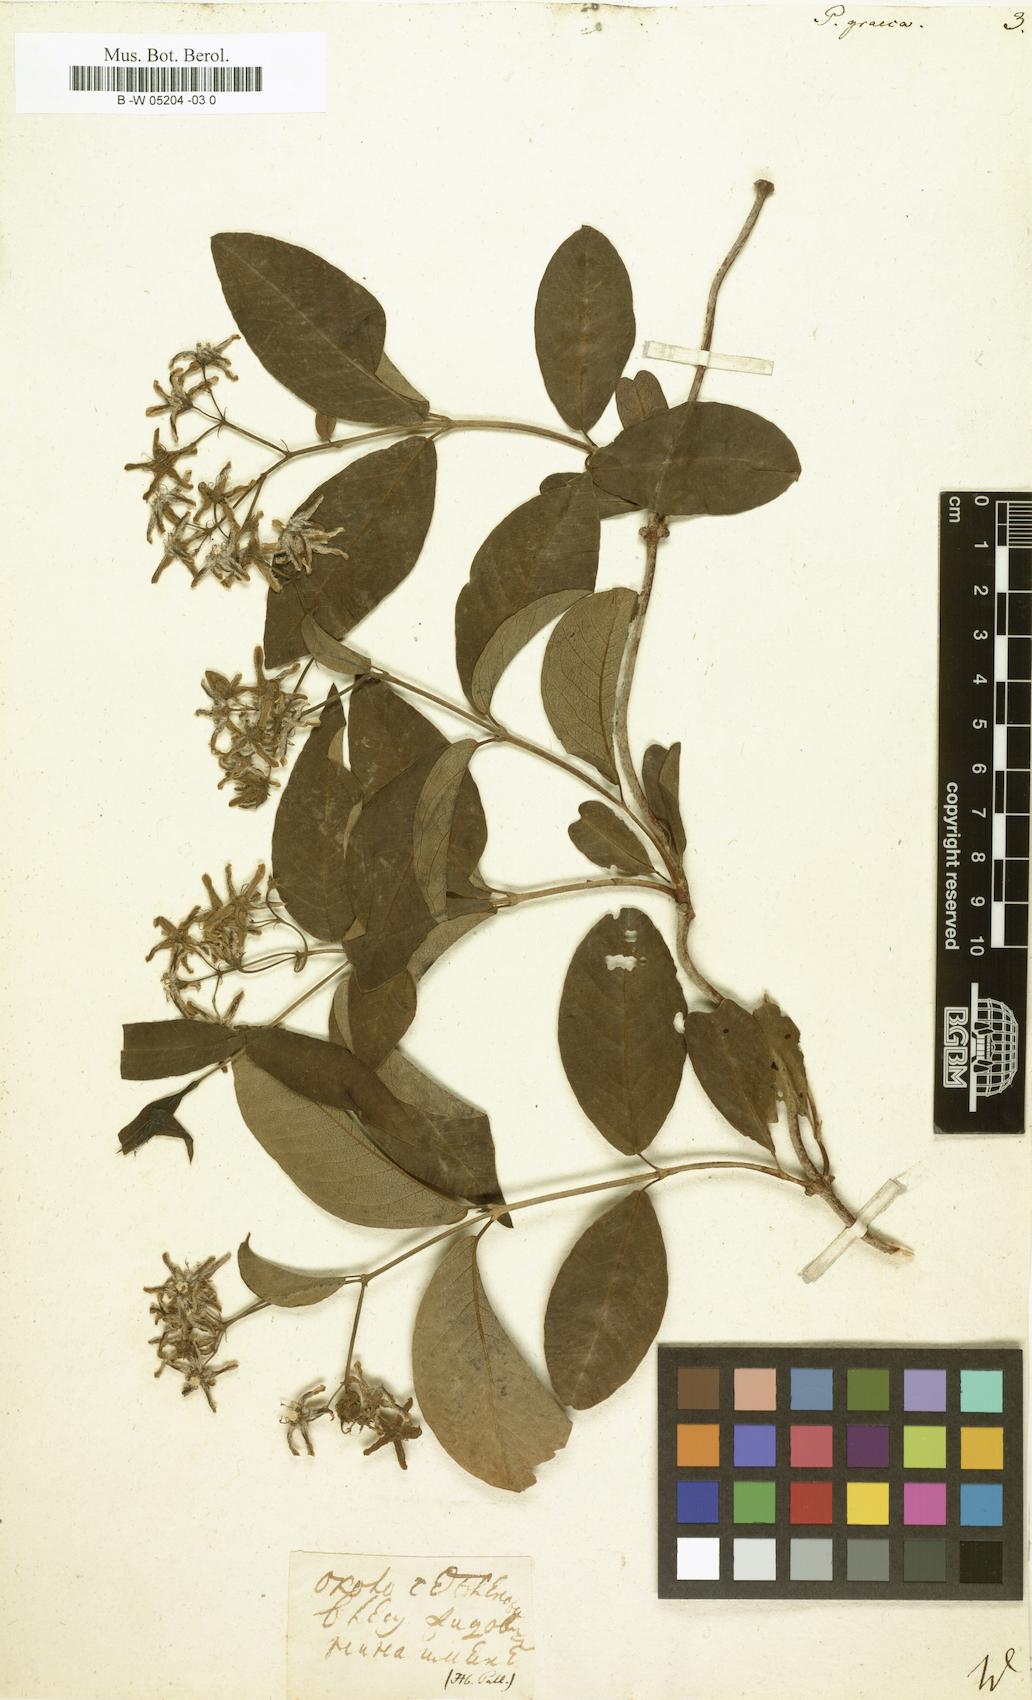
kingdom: Plantae
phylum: Tracheophyta
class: Magnoliopsida
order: Gentianales
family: Apocynaceae
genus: Periploca
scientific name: Periploca graeca
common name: Silkvine
